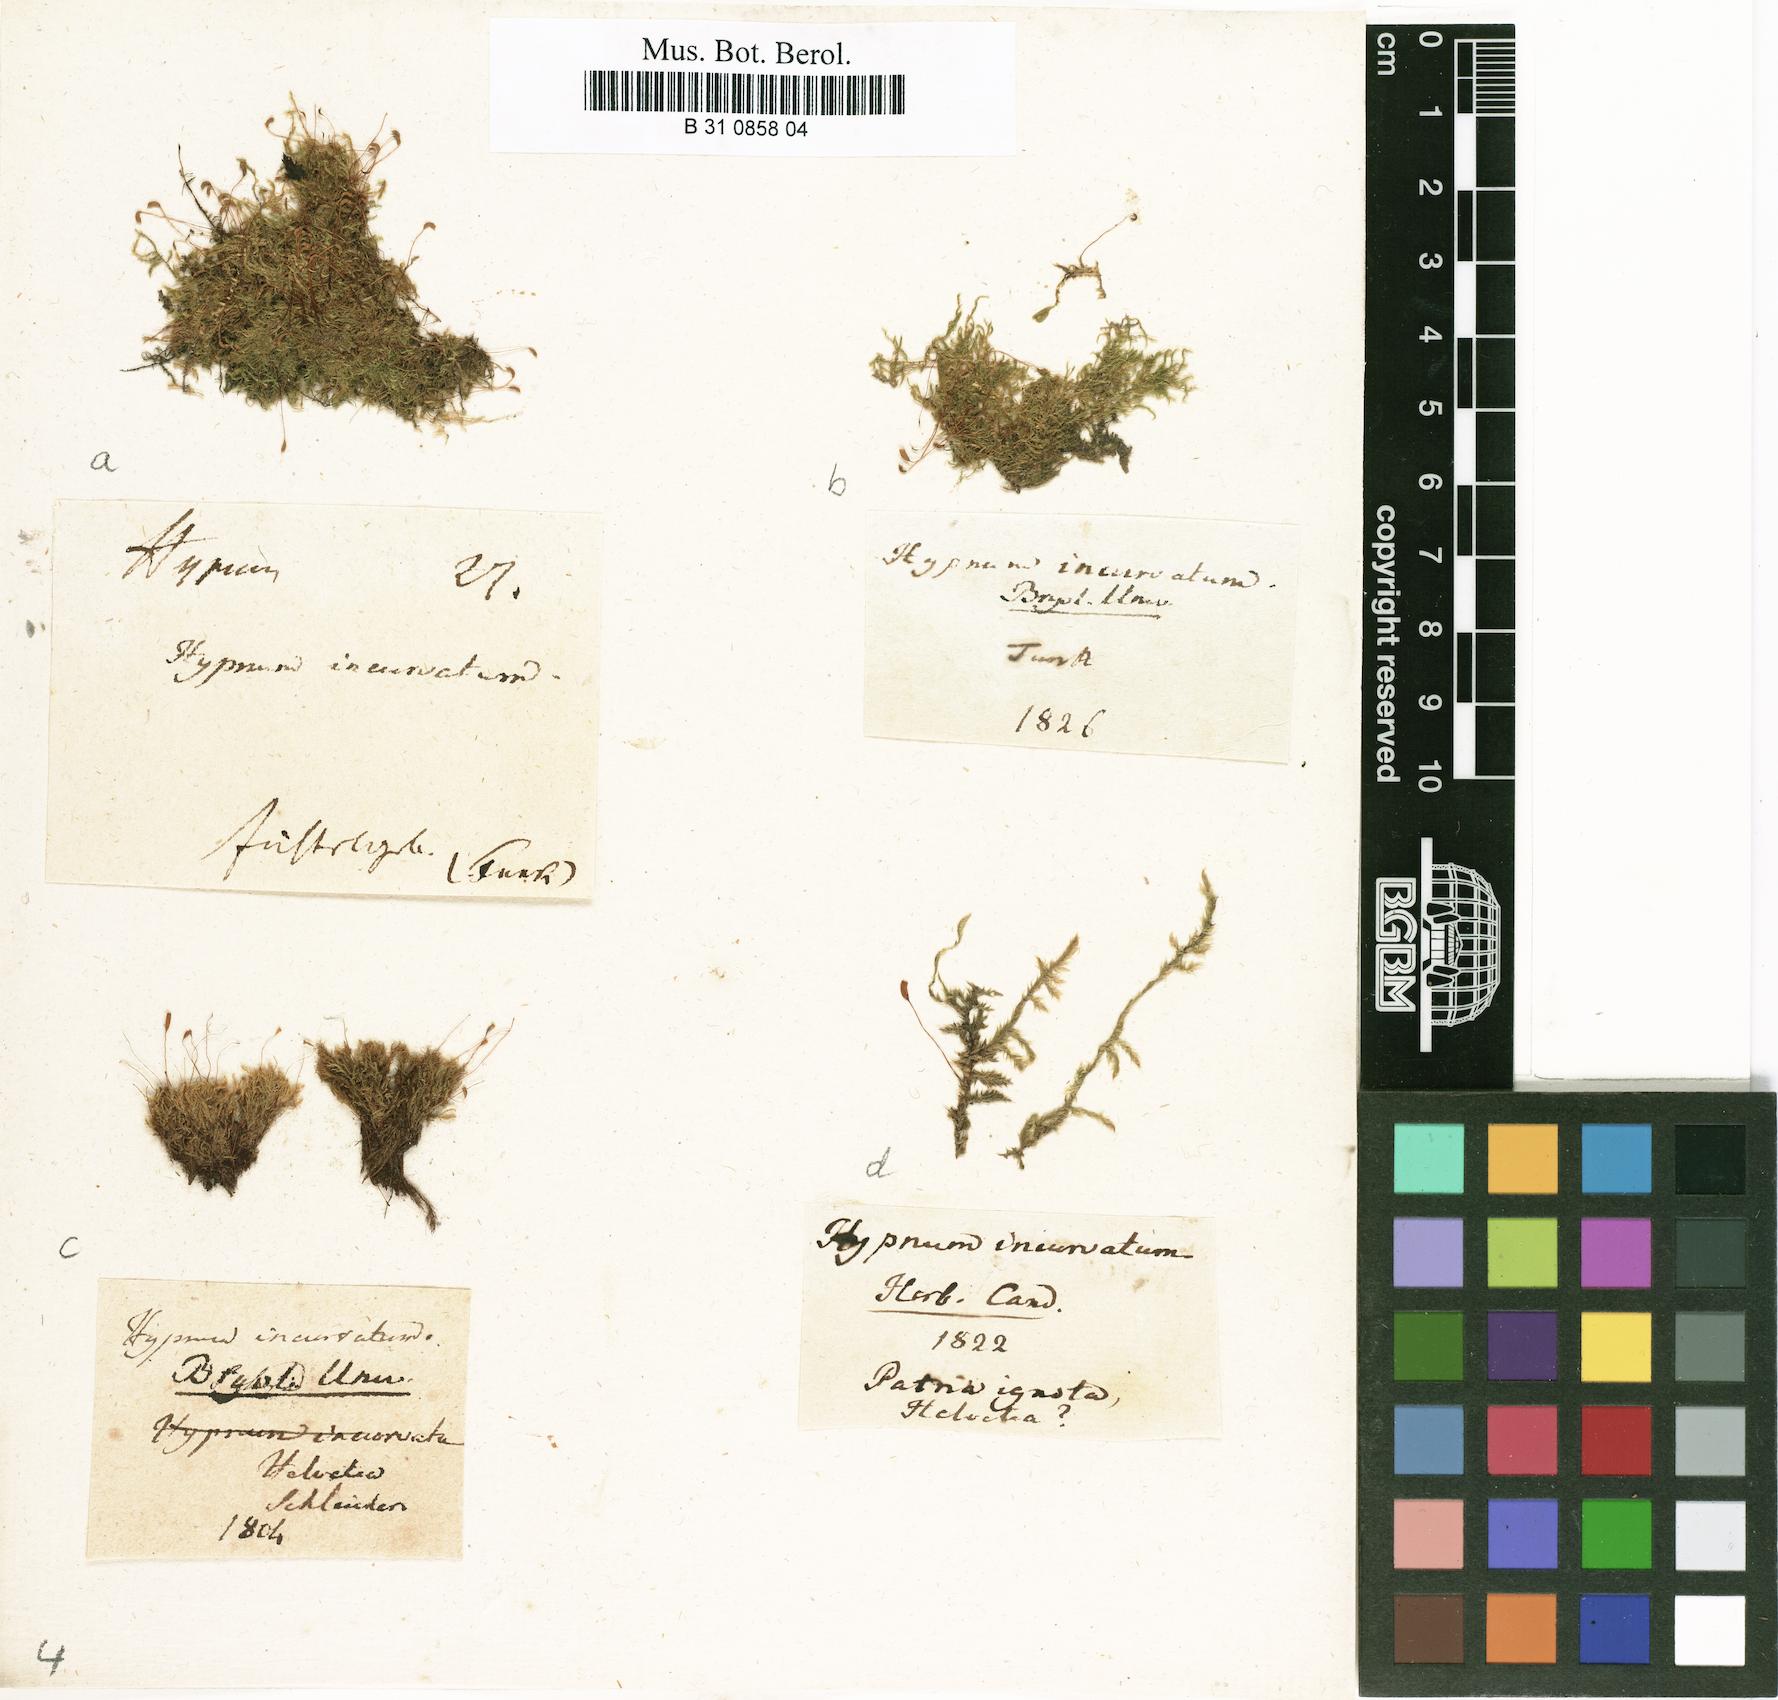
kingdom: Plantae
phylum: Bryophyta
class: Bryopsida
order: Hypnales
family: Pylaisiaceae
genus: Homomallium
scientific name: Homomallium incurvatum
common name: Incurved feather-moss
